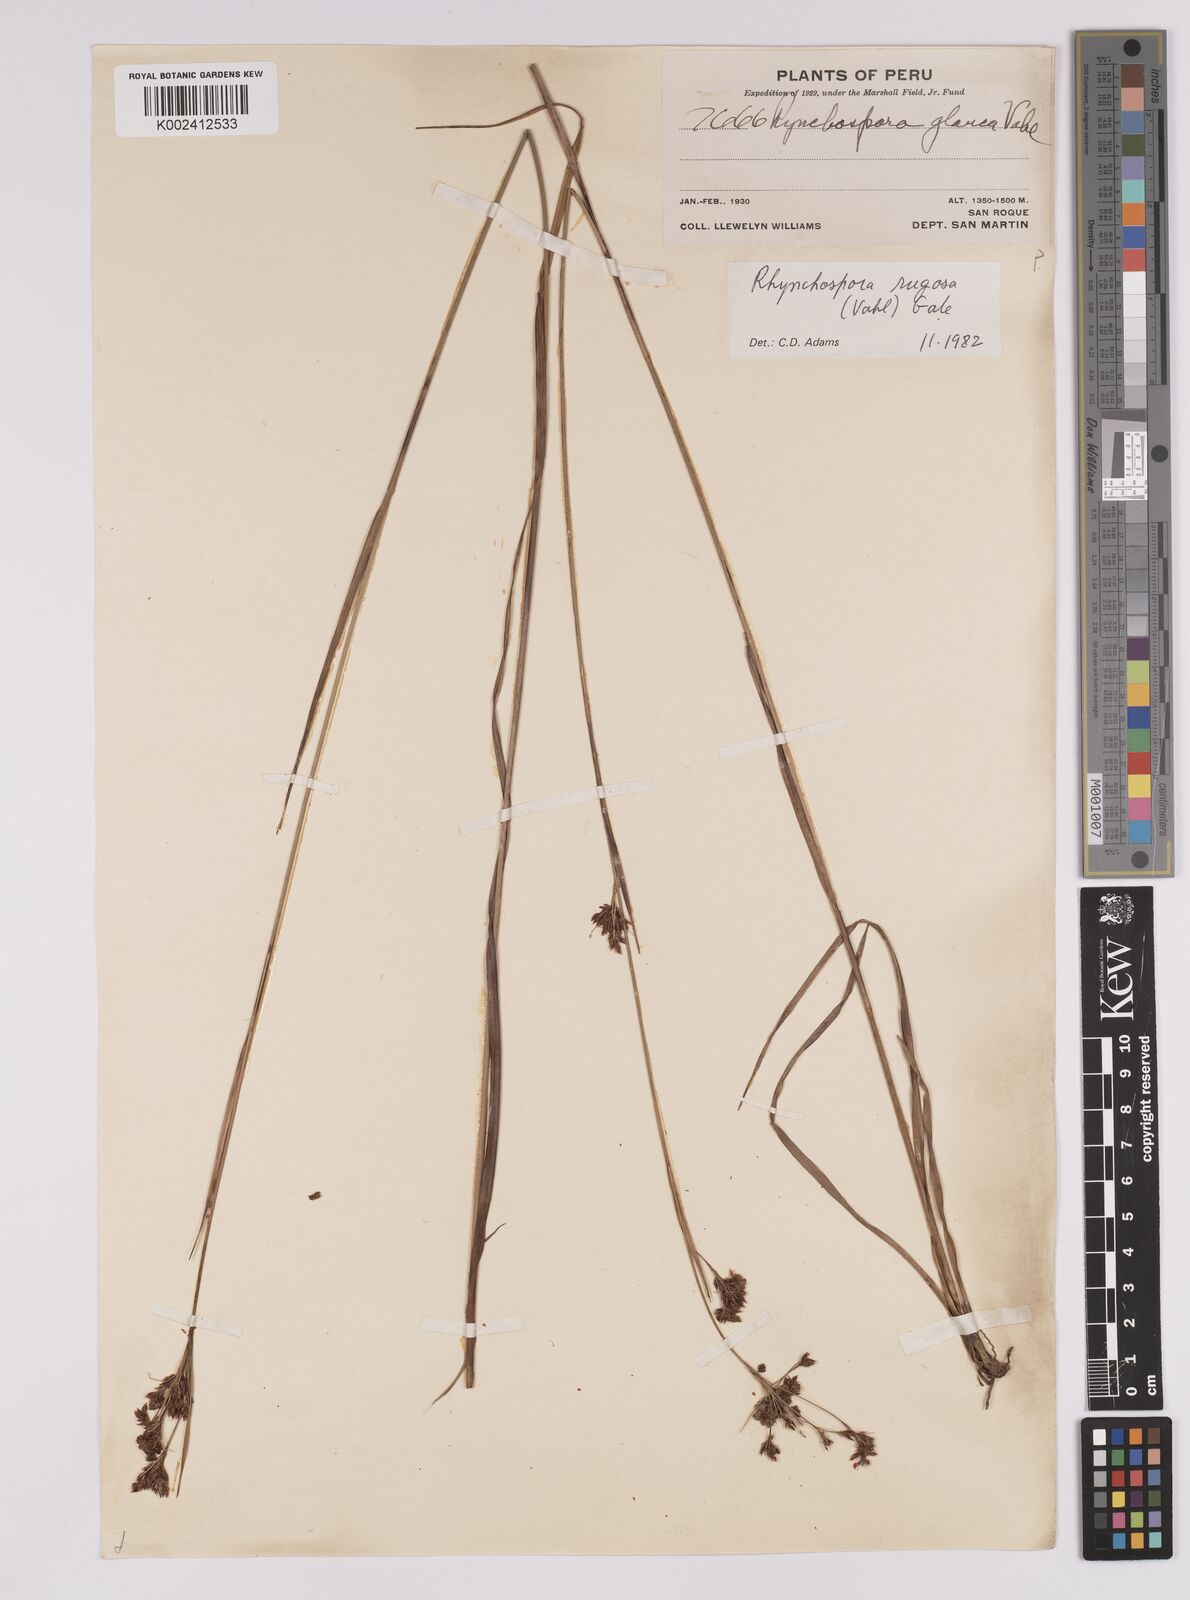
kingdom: Plantae
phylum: Tracheophyta
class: Liliopsida
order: Poales
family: Cyperaceae
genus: Rhynchospora
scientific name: Rhynchospora rugosa
